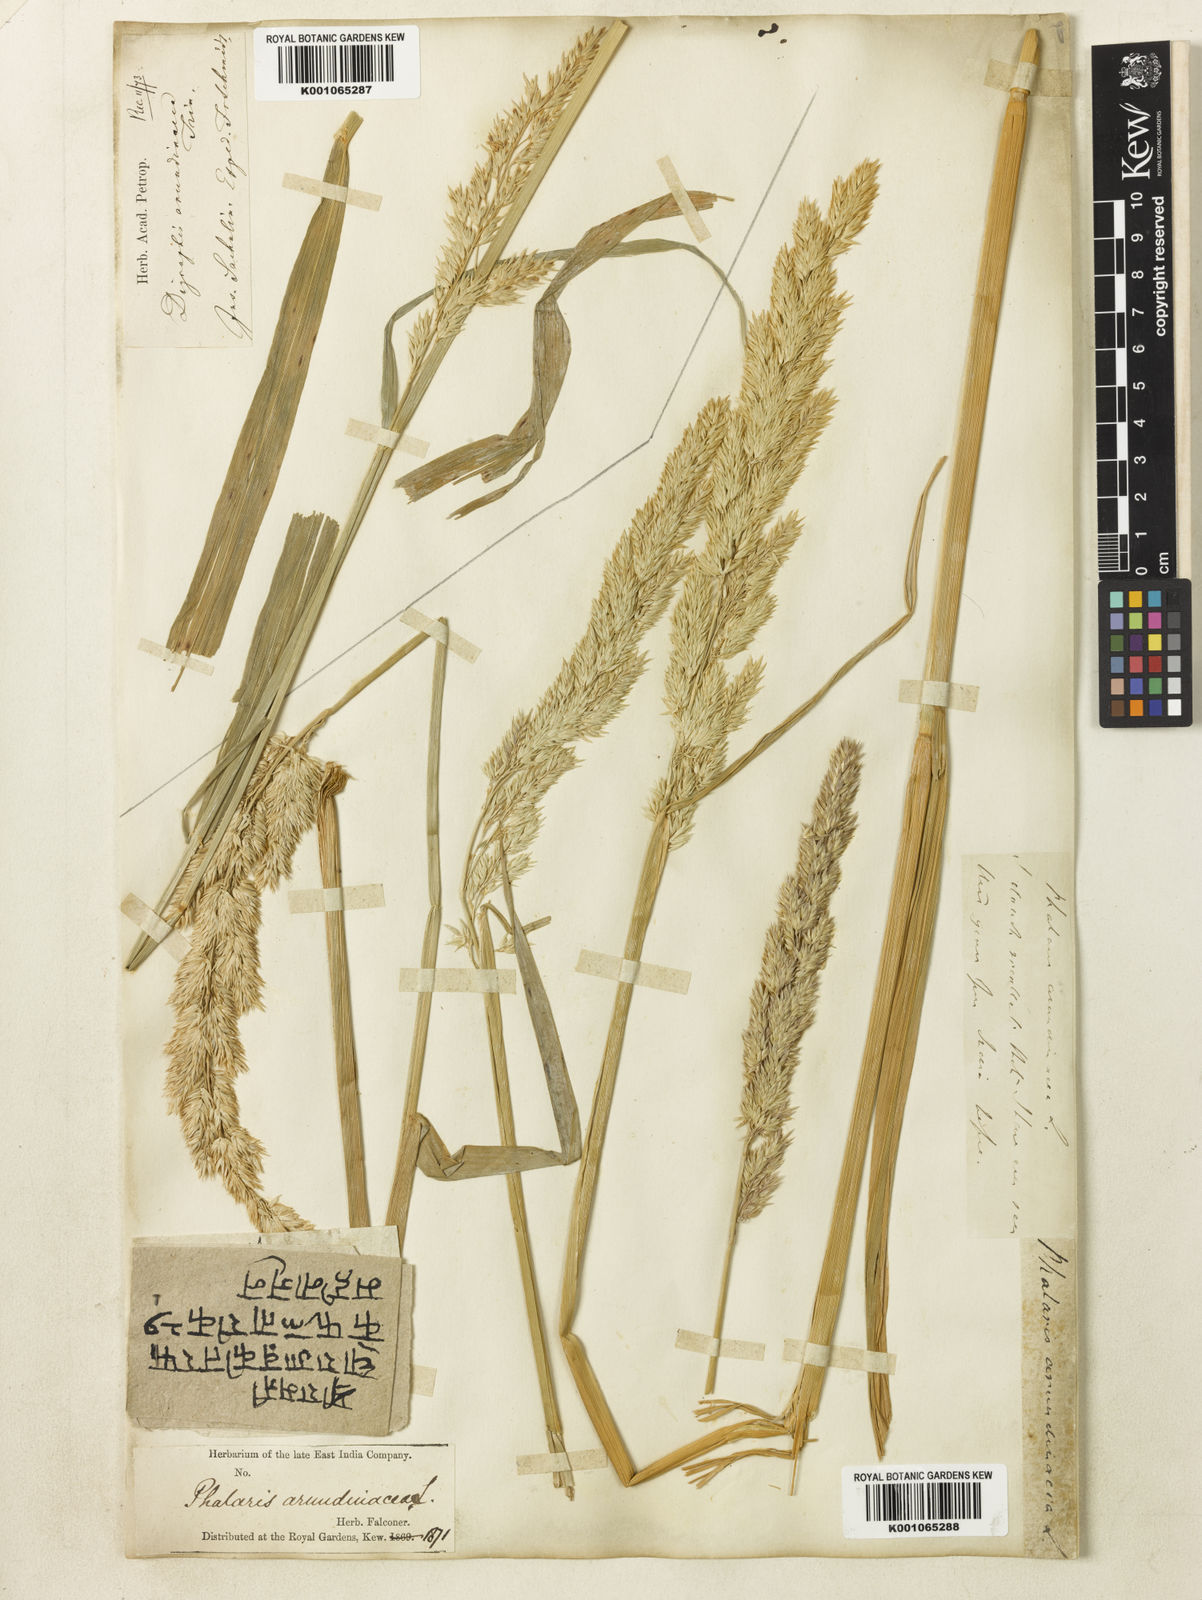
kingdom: Plantae
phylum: Tracheophyta
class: Liliopsida
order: Poales
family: Poaceae
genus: Phalaris
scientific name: Phalaris arundinacea
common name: Reed canary-grass
